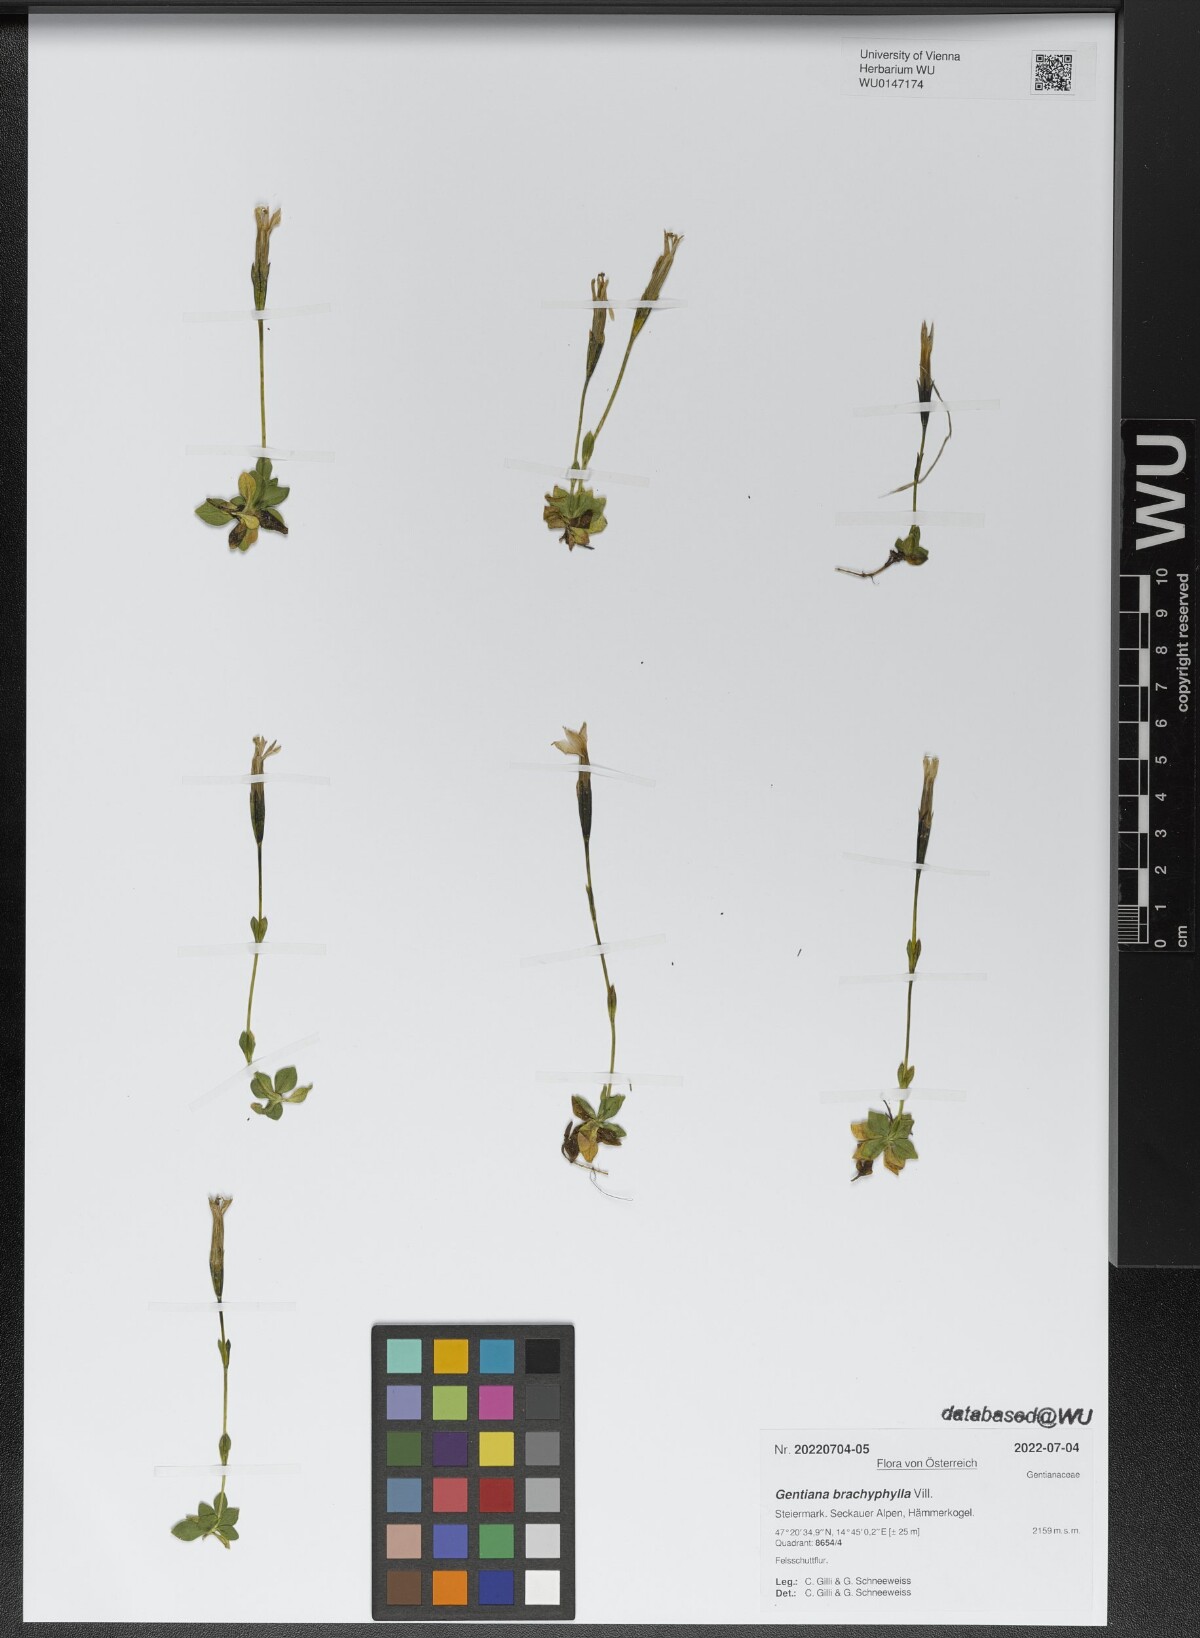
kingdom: Plantae
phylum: Tracheophyta
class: Magnoliopsida
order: Gentianales
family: Gentianaceae
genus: Gentiana
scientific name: Gentiana brachyphylla
